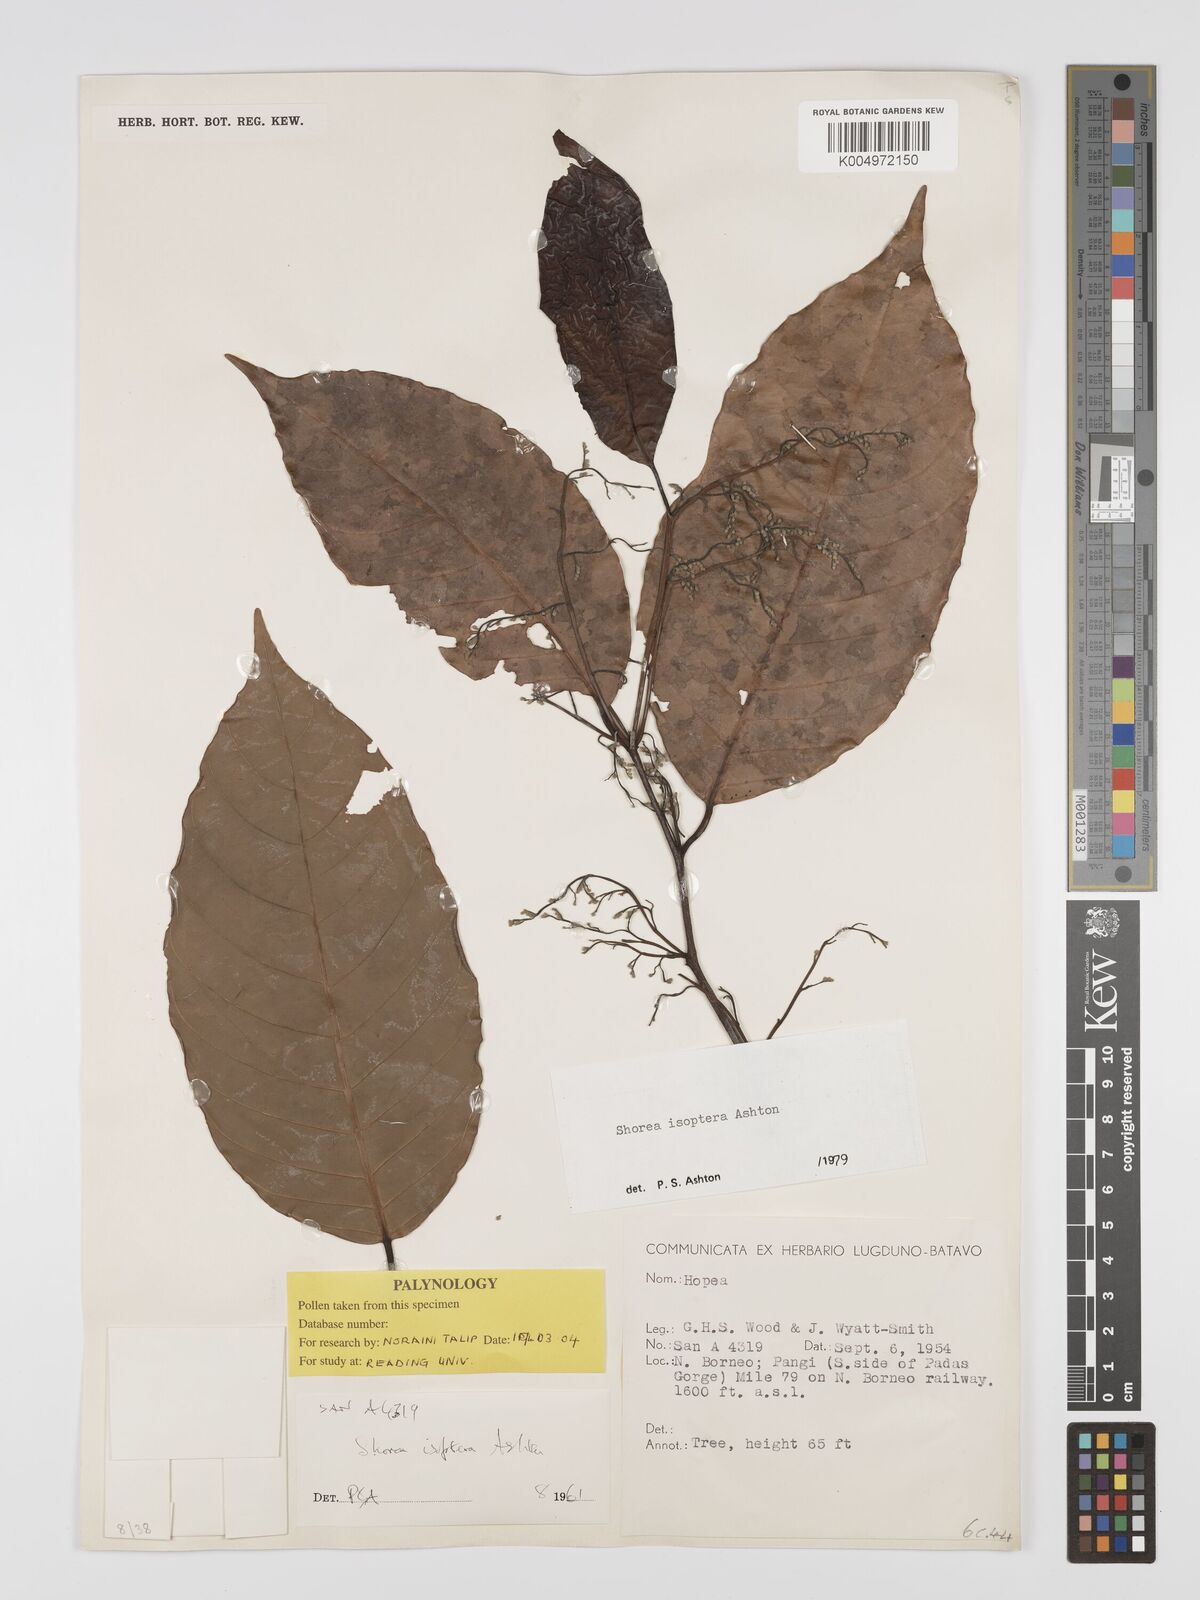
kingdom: Plantae
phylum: Tracheophyta
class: Magnoliopsida
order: Malvales
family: Dipterocarpaceae
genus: Neohopea
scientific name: Neohopea isoptera
